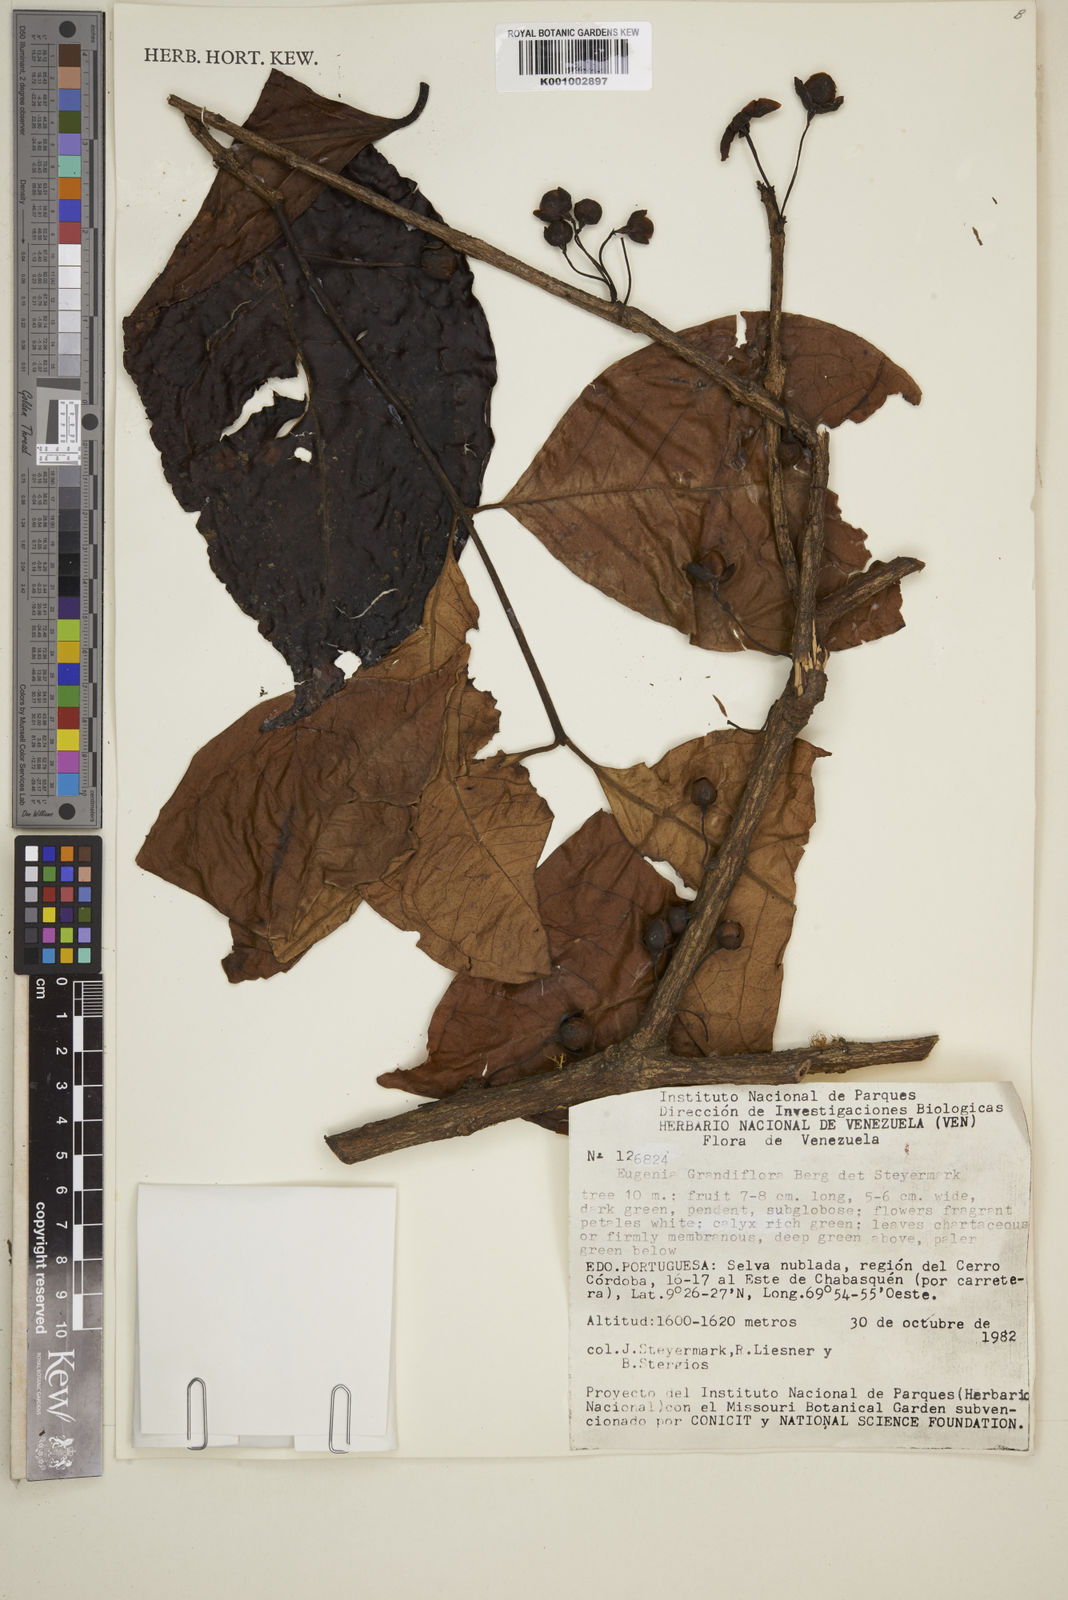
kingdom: Plantae
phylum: Tracheophyta
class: Magnoliopsida
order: Myrtales
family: Myrtaceae
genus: Eugenia
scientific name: Eugenia grandiflora
